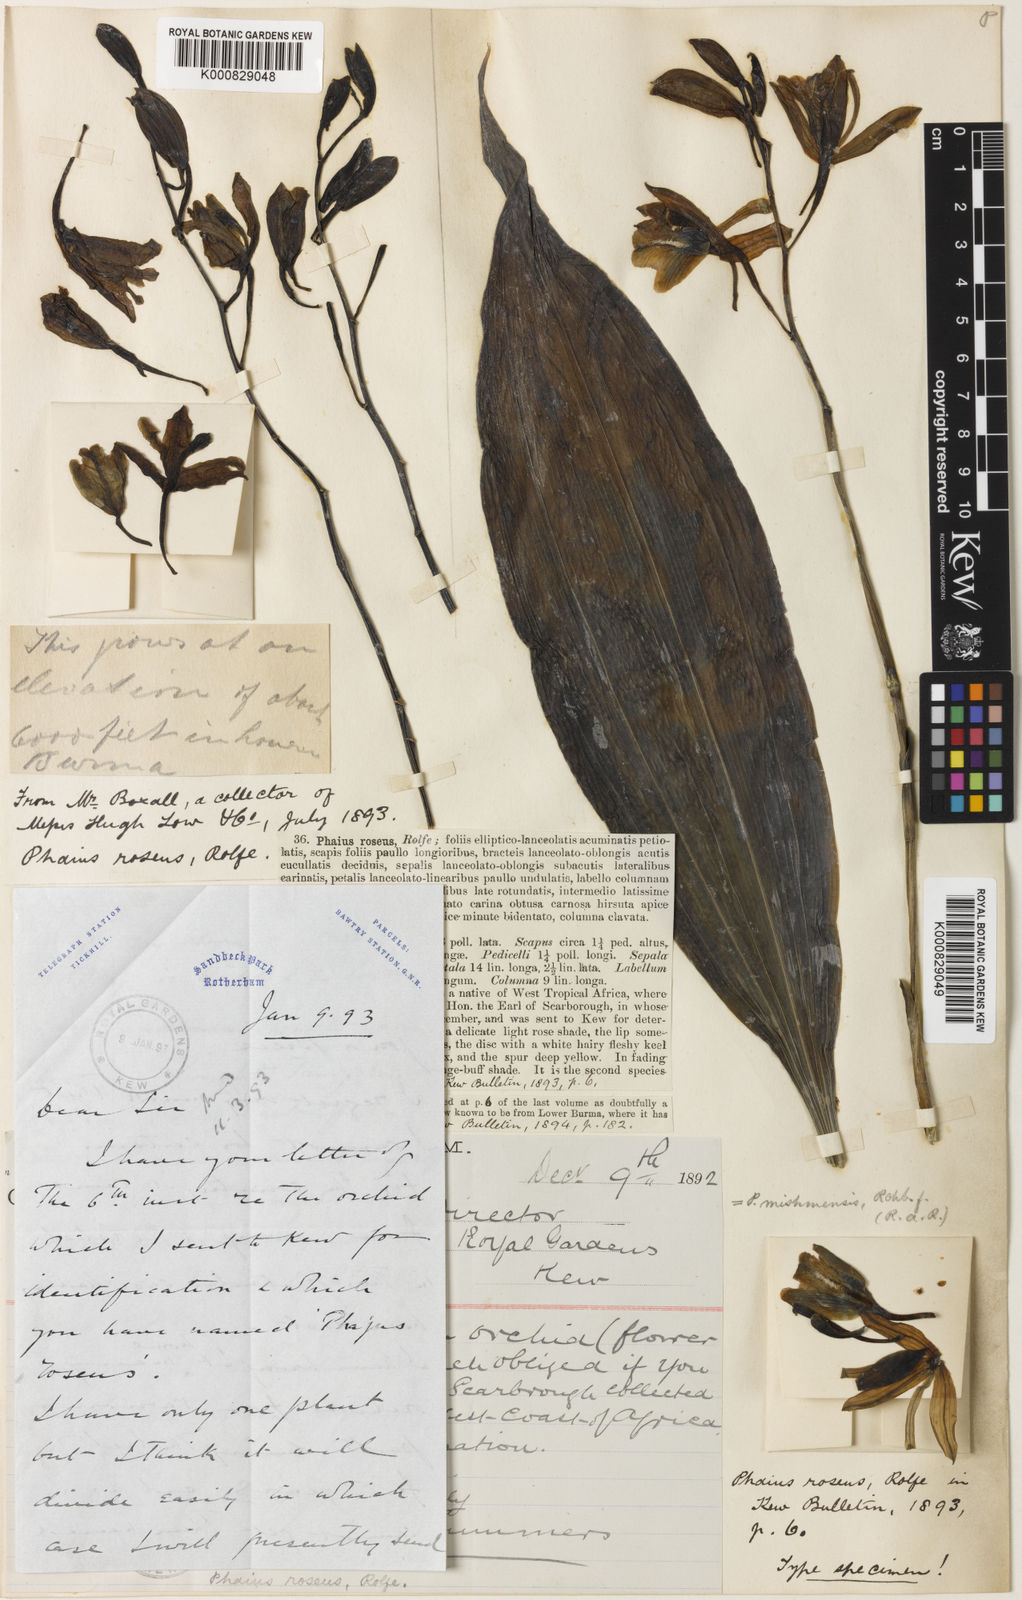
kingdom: Plantae
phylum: Tracheophyta
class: Liliopsida
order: Asparagales
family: Orchidaceae
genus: Calanthe
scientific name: Calanthe mishmensis
